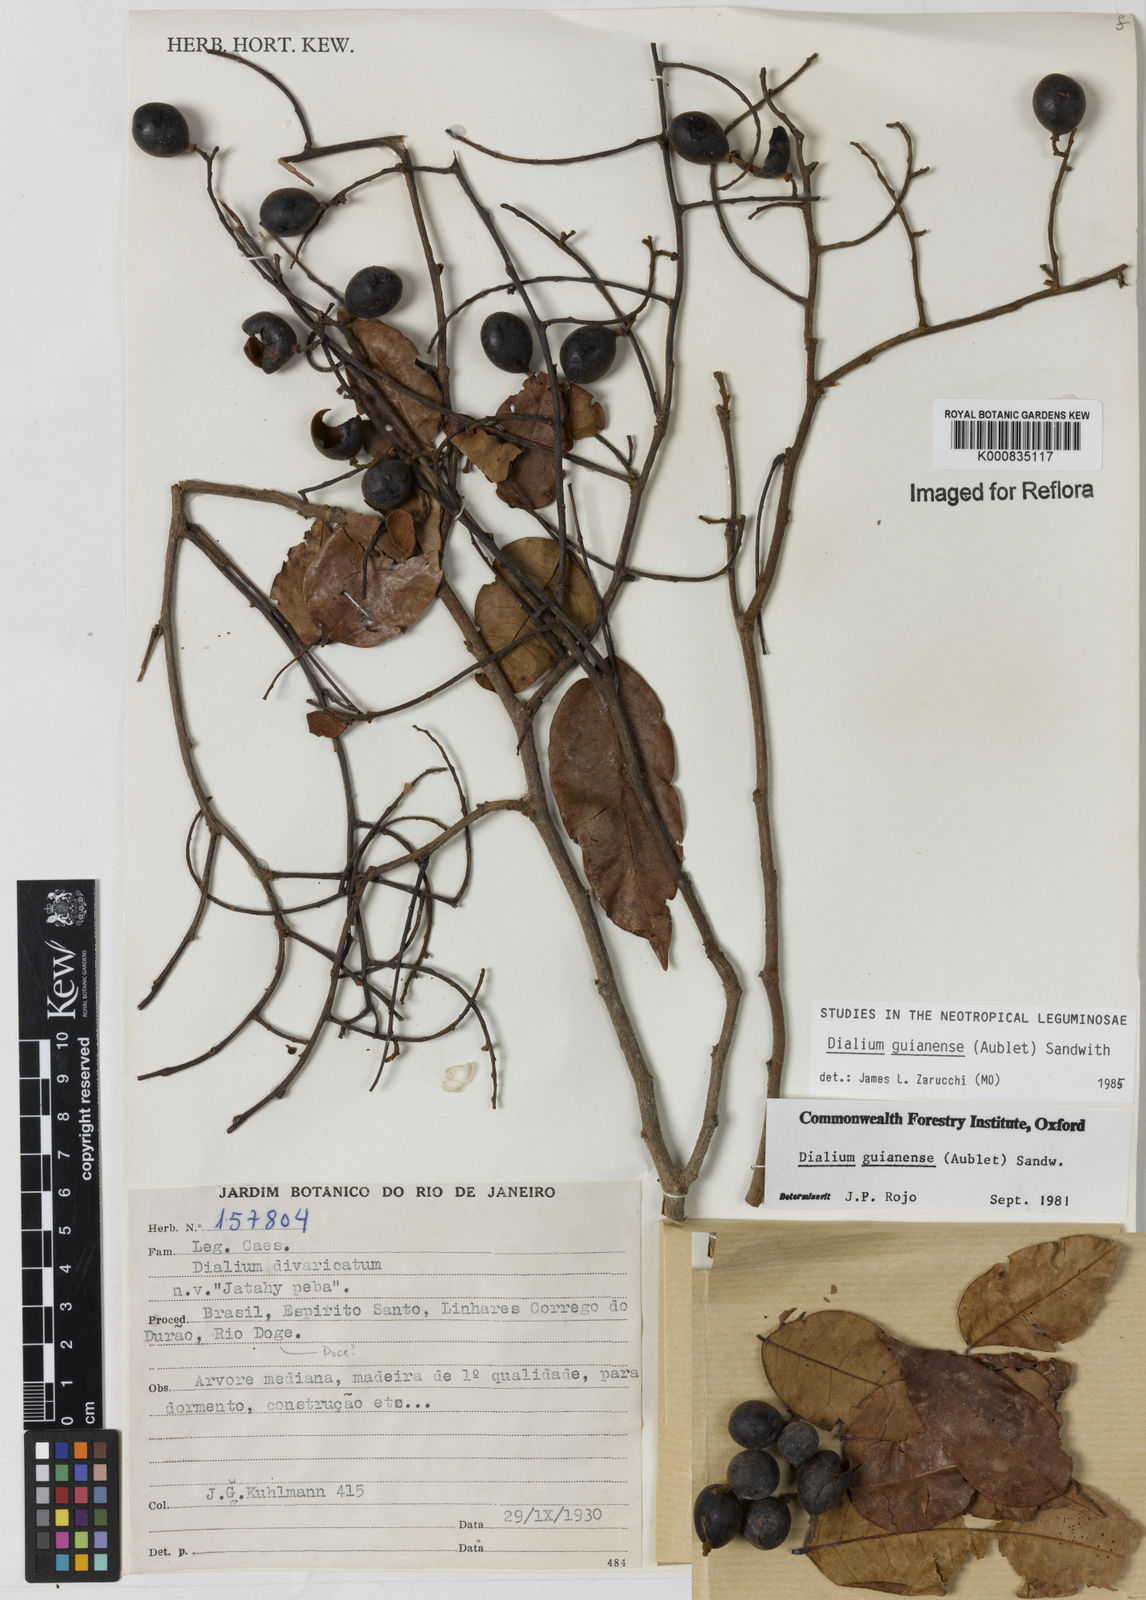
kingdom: Plantae
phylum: Tracheophyta
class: Magnoliopsida
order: Fabales
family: Fabaceae
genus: Dialium
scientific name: Dialium guianense
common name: Ironwood
